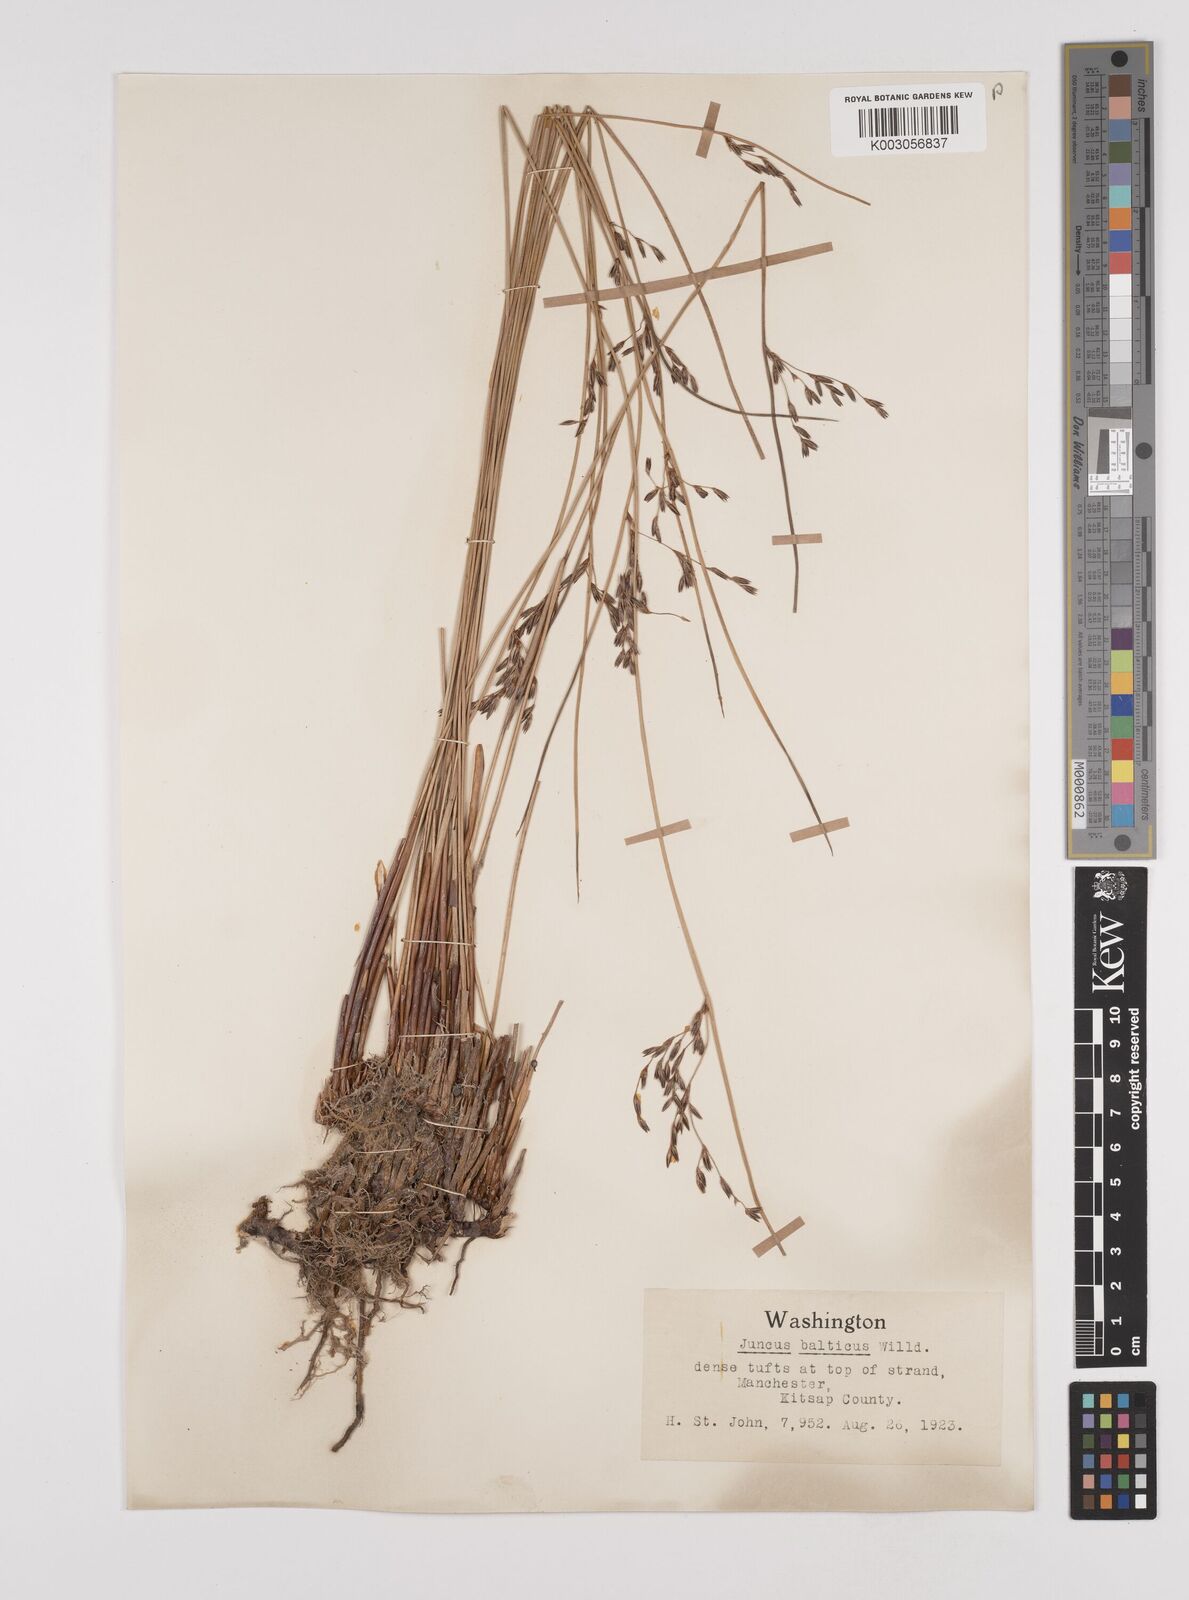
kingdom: Plantae
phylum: Tracheophyta
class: Liliopsida
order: Poales
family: Juncaceae
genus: Juncus
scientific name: Juncus balticus
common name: Baltic rush
